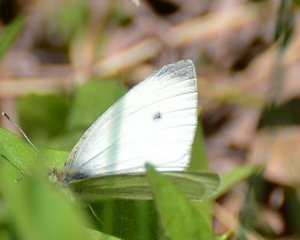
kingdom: Animalia
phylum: Arthropoda
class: Insecta
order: Lepidoptera
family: Pieridae
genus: Pieris
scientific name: Pieris rapae
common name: Cabbage White
